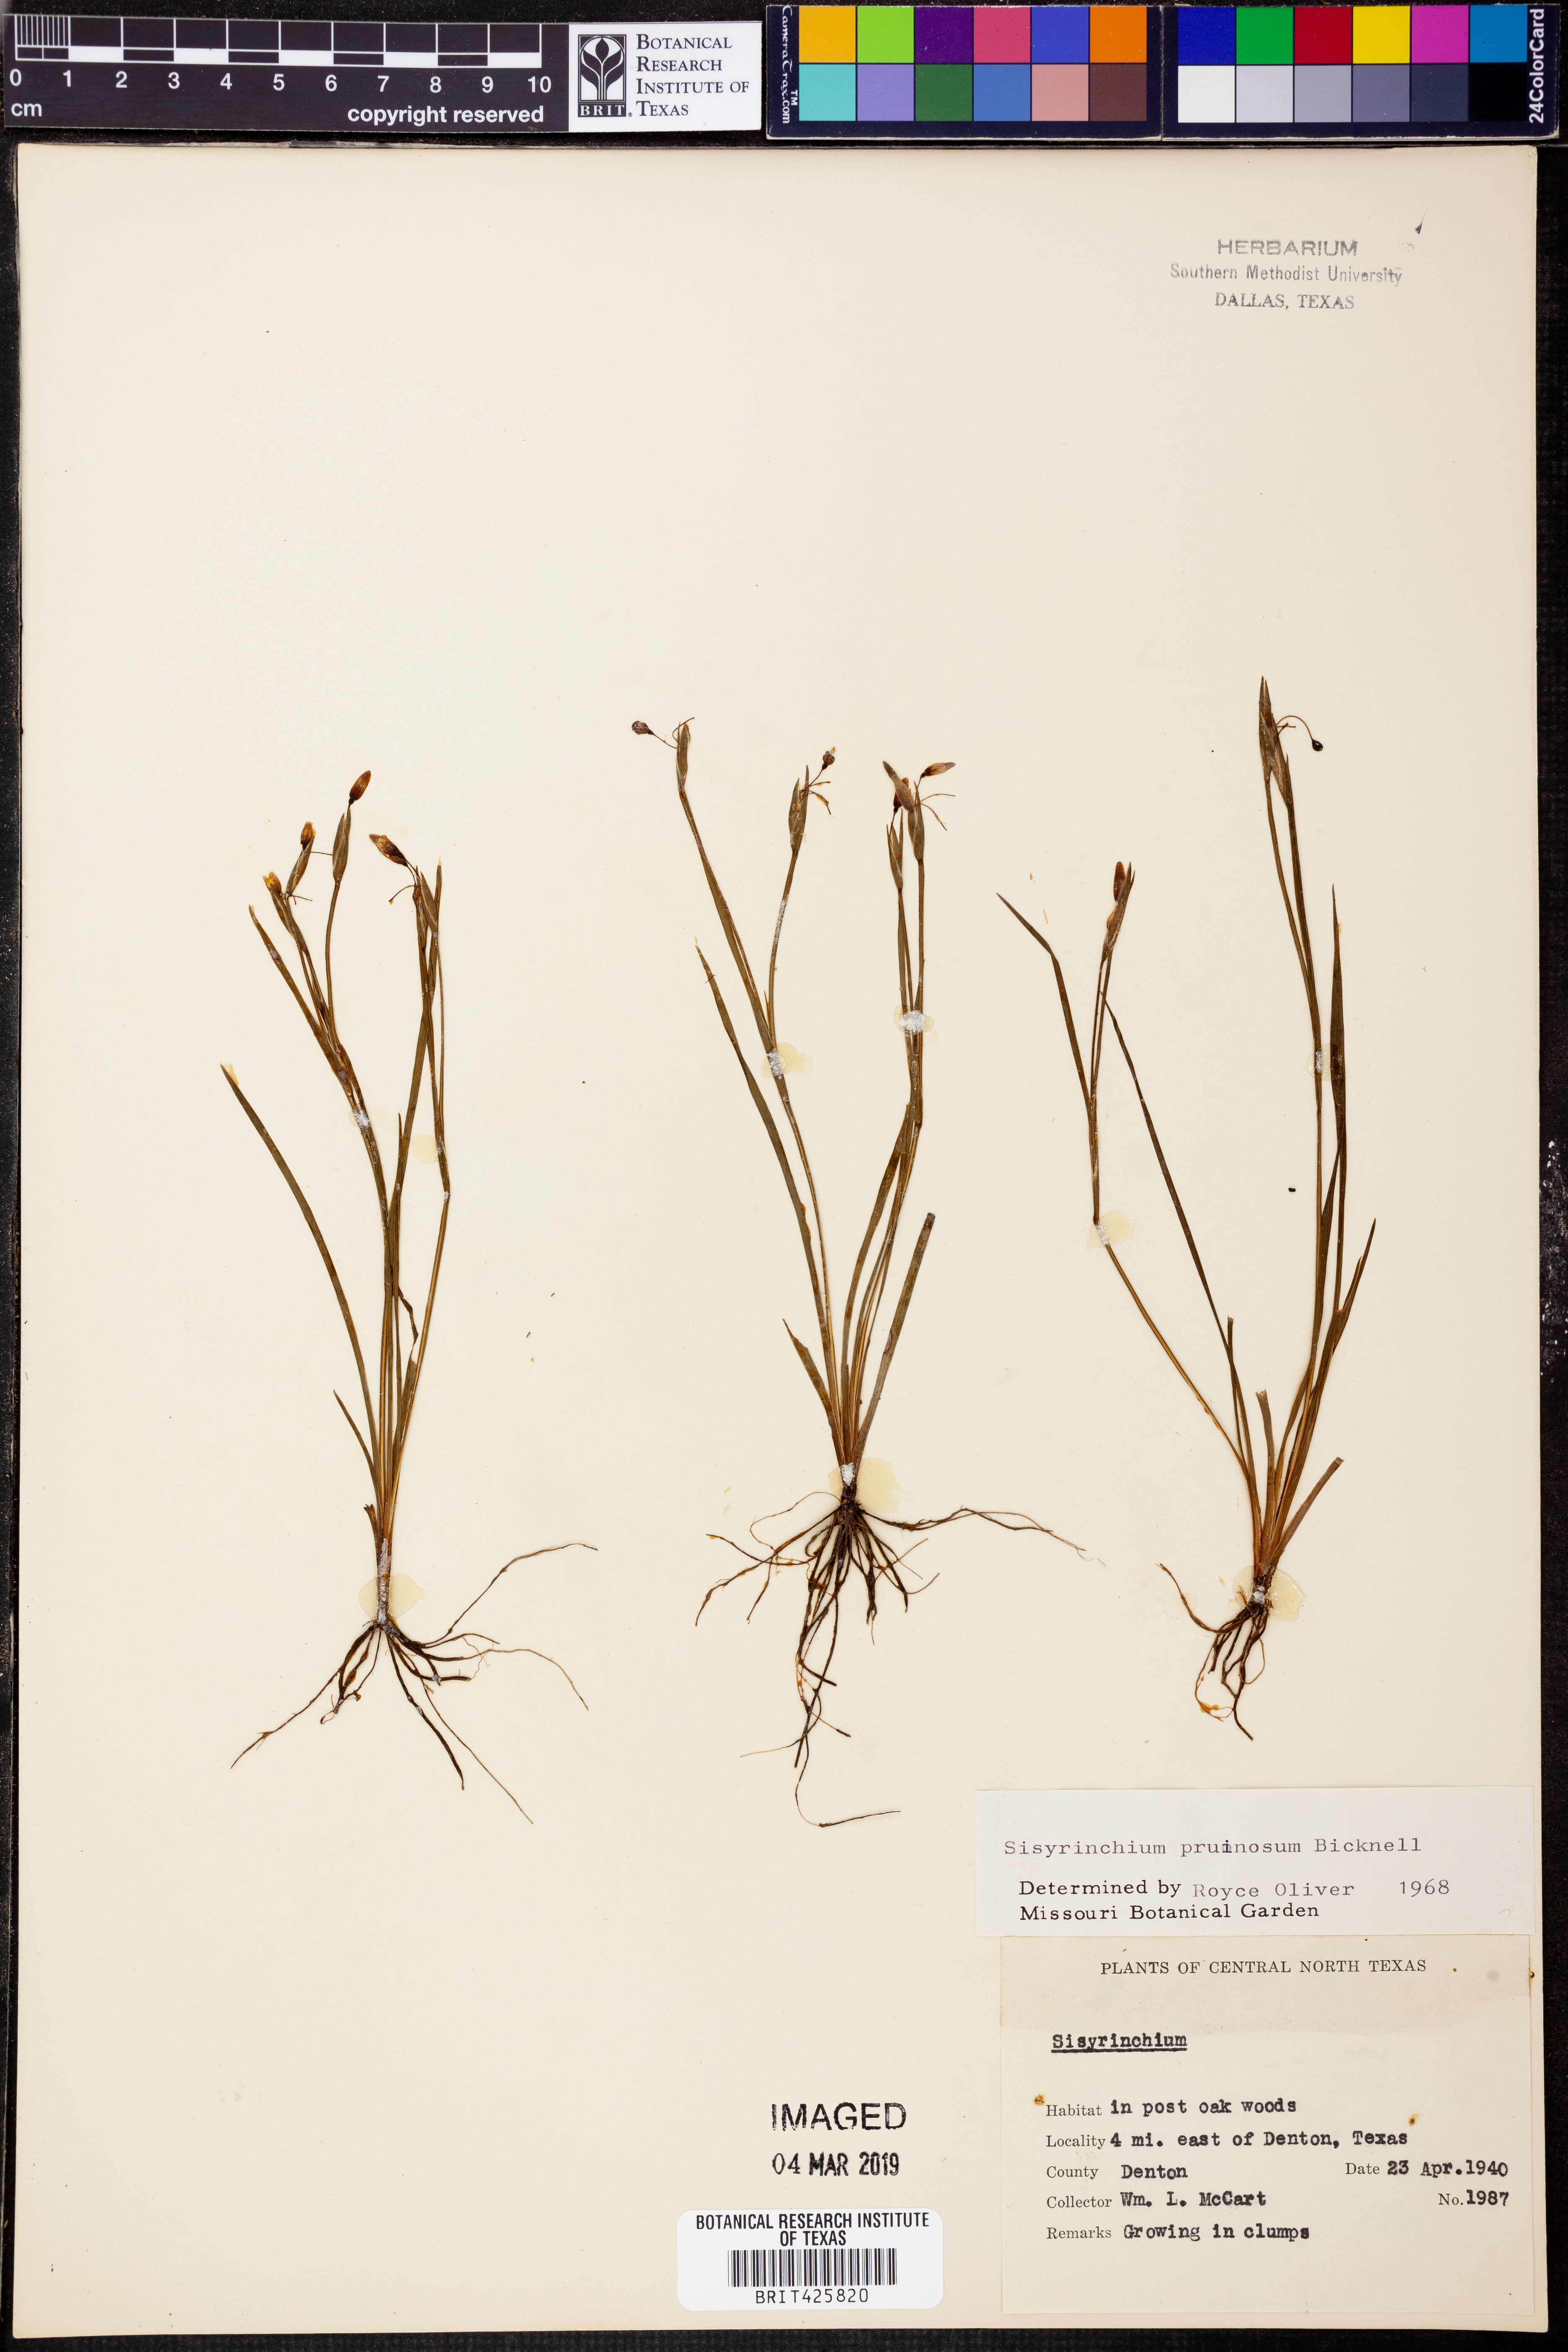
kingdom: Plantae
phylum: Tracheophyta
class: Liliopsida
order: Asparagales
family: Iridaceae
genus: Sisyrinchium
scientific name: Sisyrinchium pruinosum
